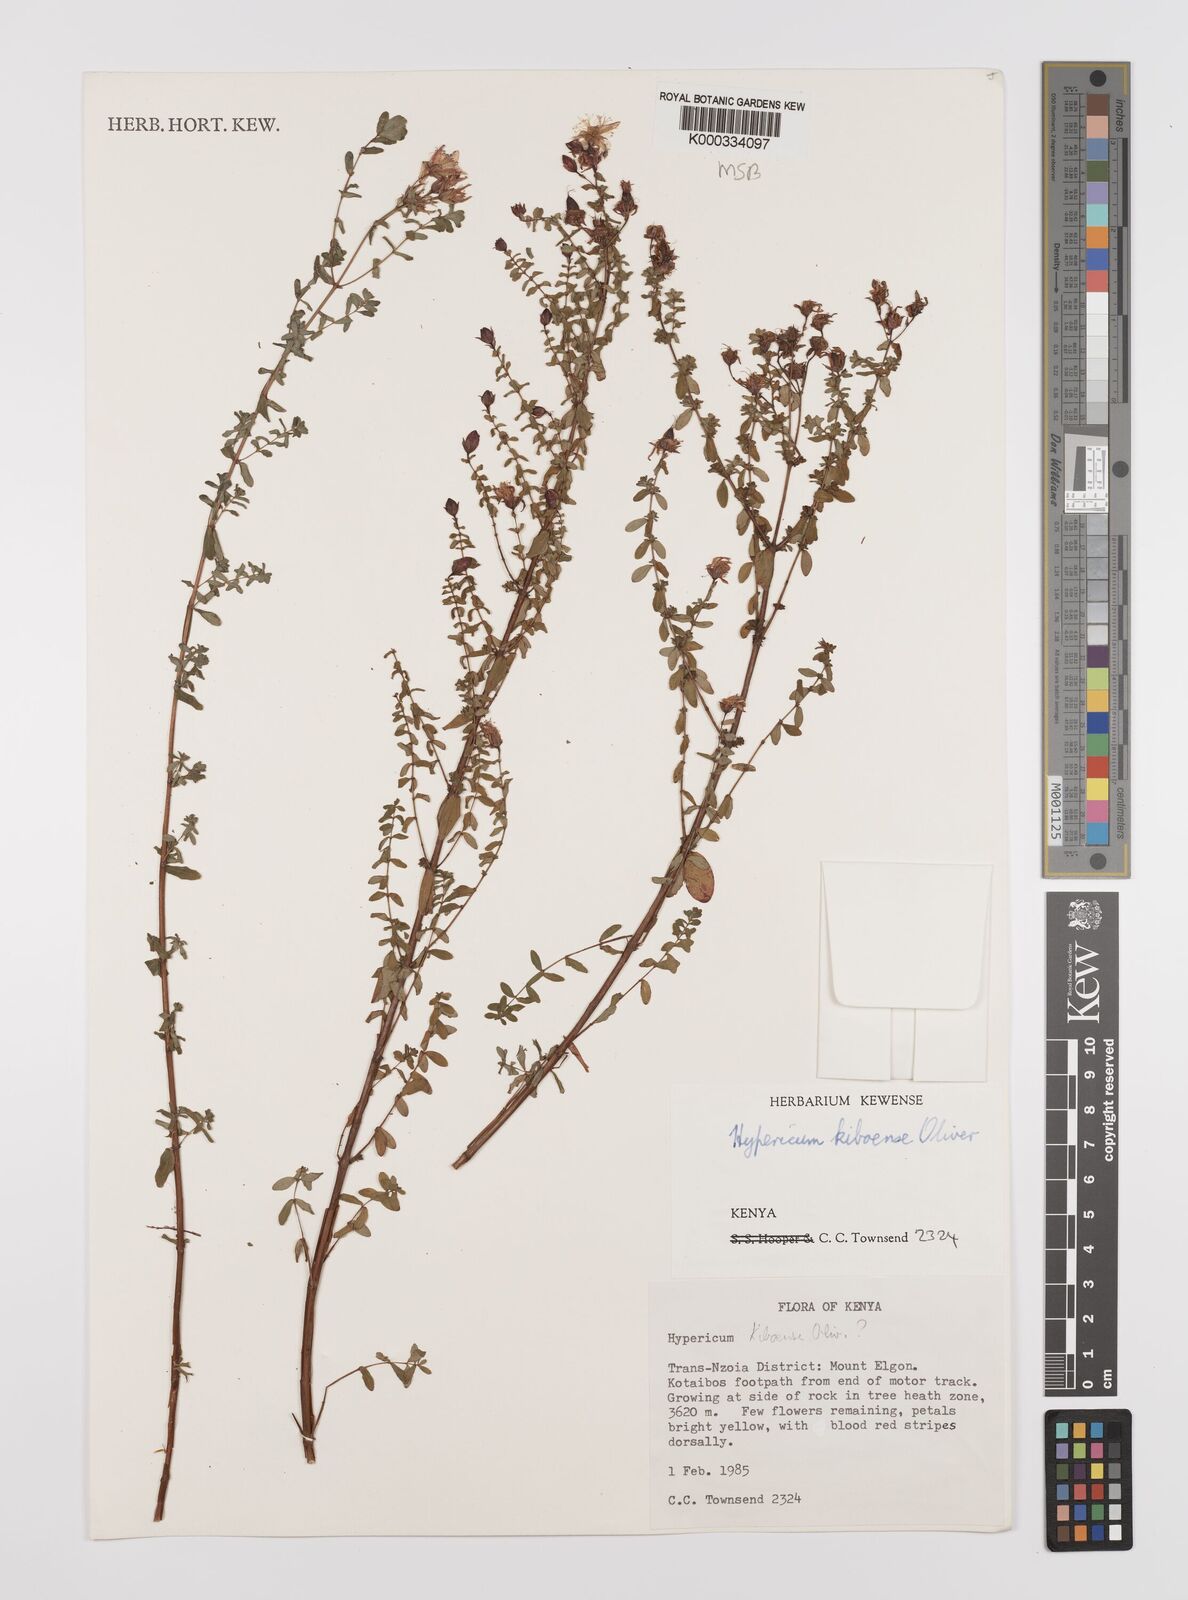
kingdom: Plantae
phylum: Tracheophyta
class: Magnoliopsida
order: Malpighiales
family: Hypericaceae
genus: Hypericum
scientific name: Hypericum kiboense
